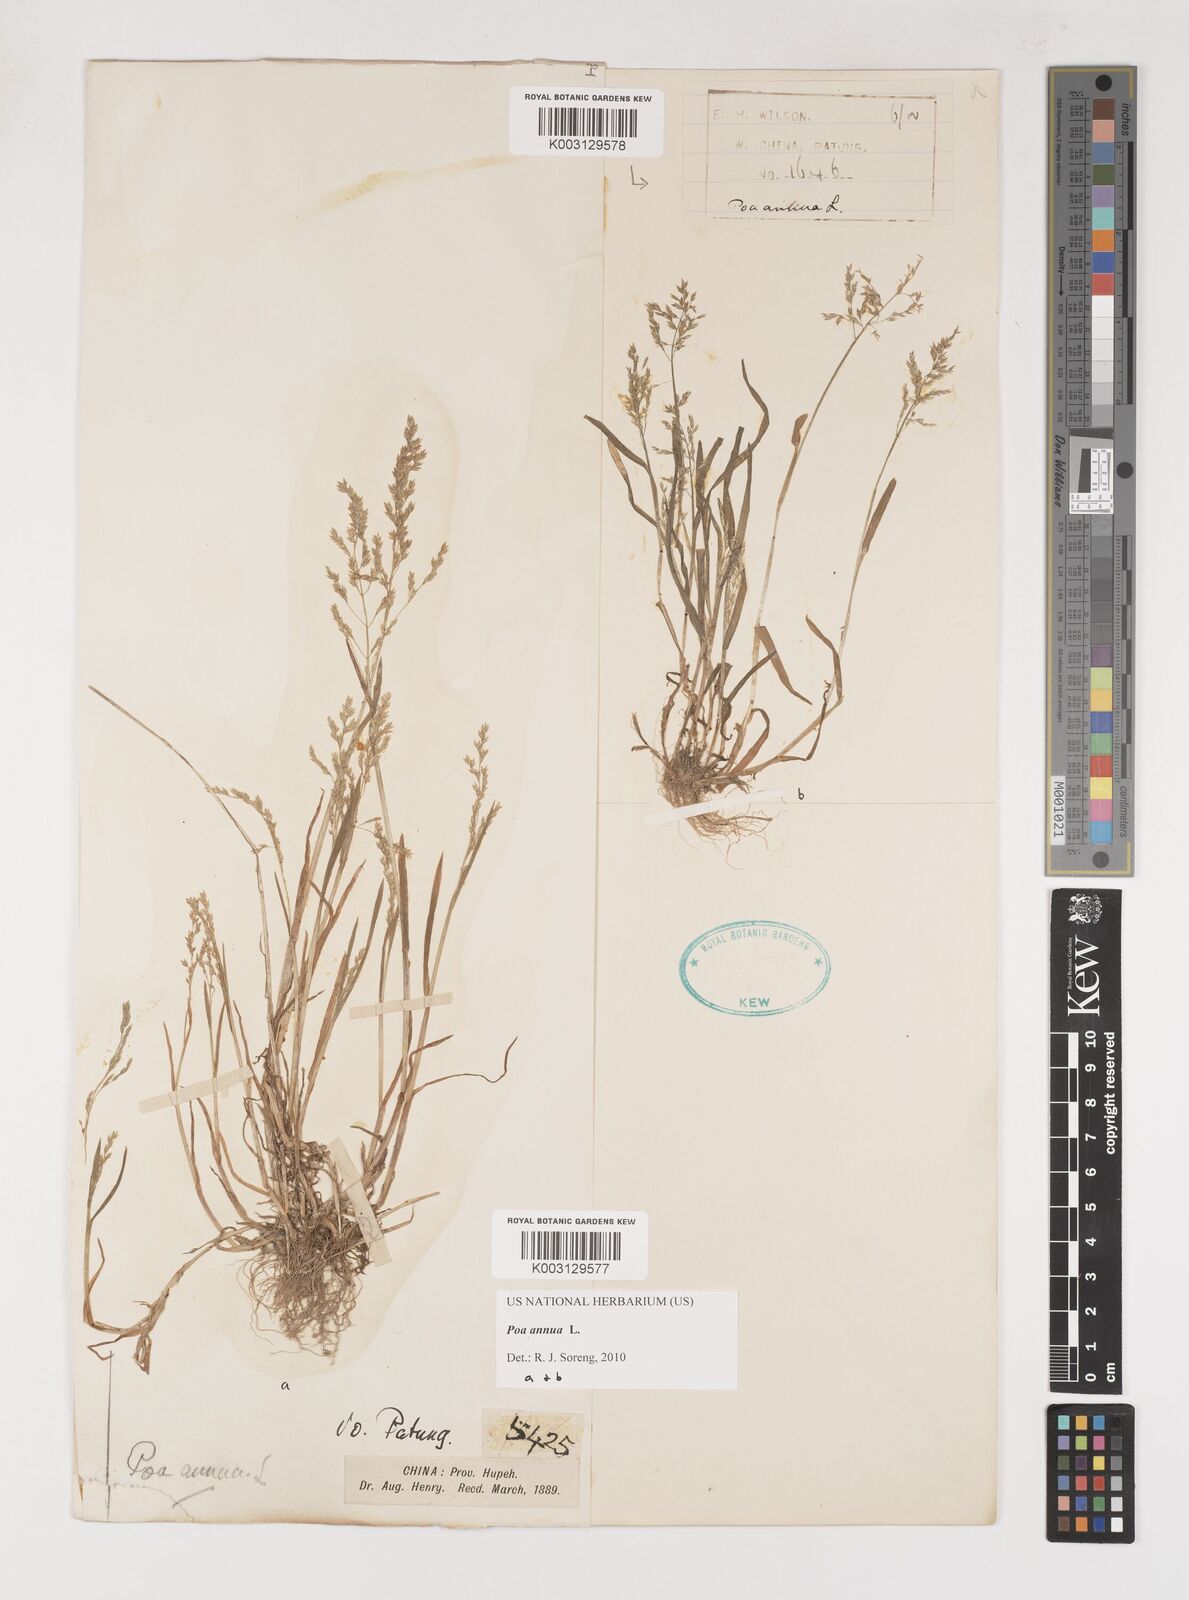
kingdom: Plantae
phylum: Tracheophyta
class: Liliopsida
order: Poales
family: Poaceae
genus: Poa
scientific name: Poa annua
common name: Annual bluegrass
